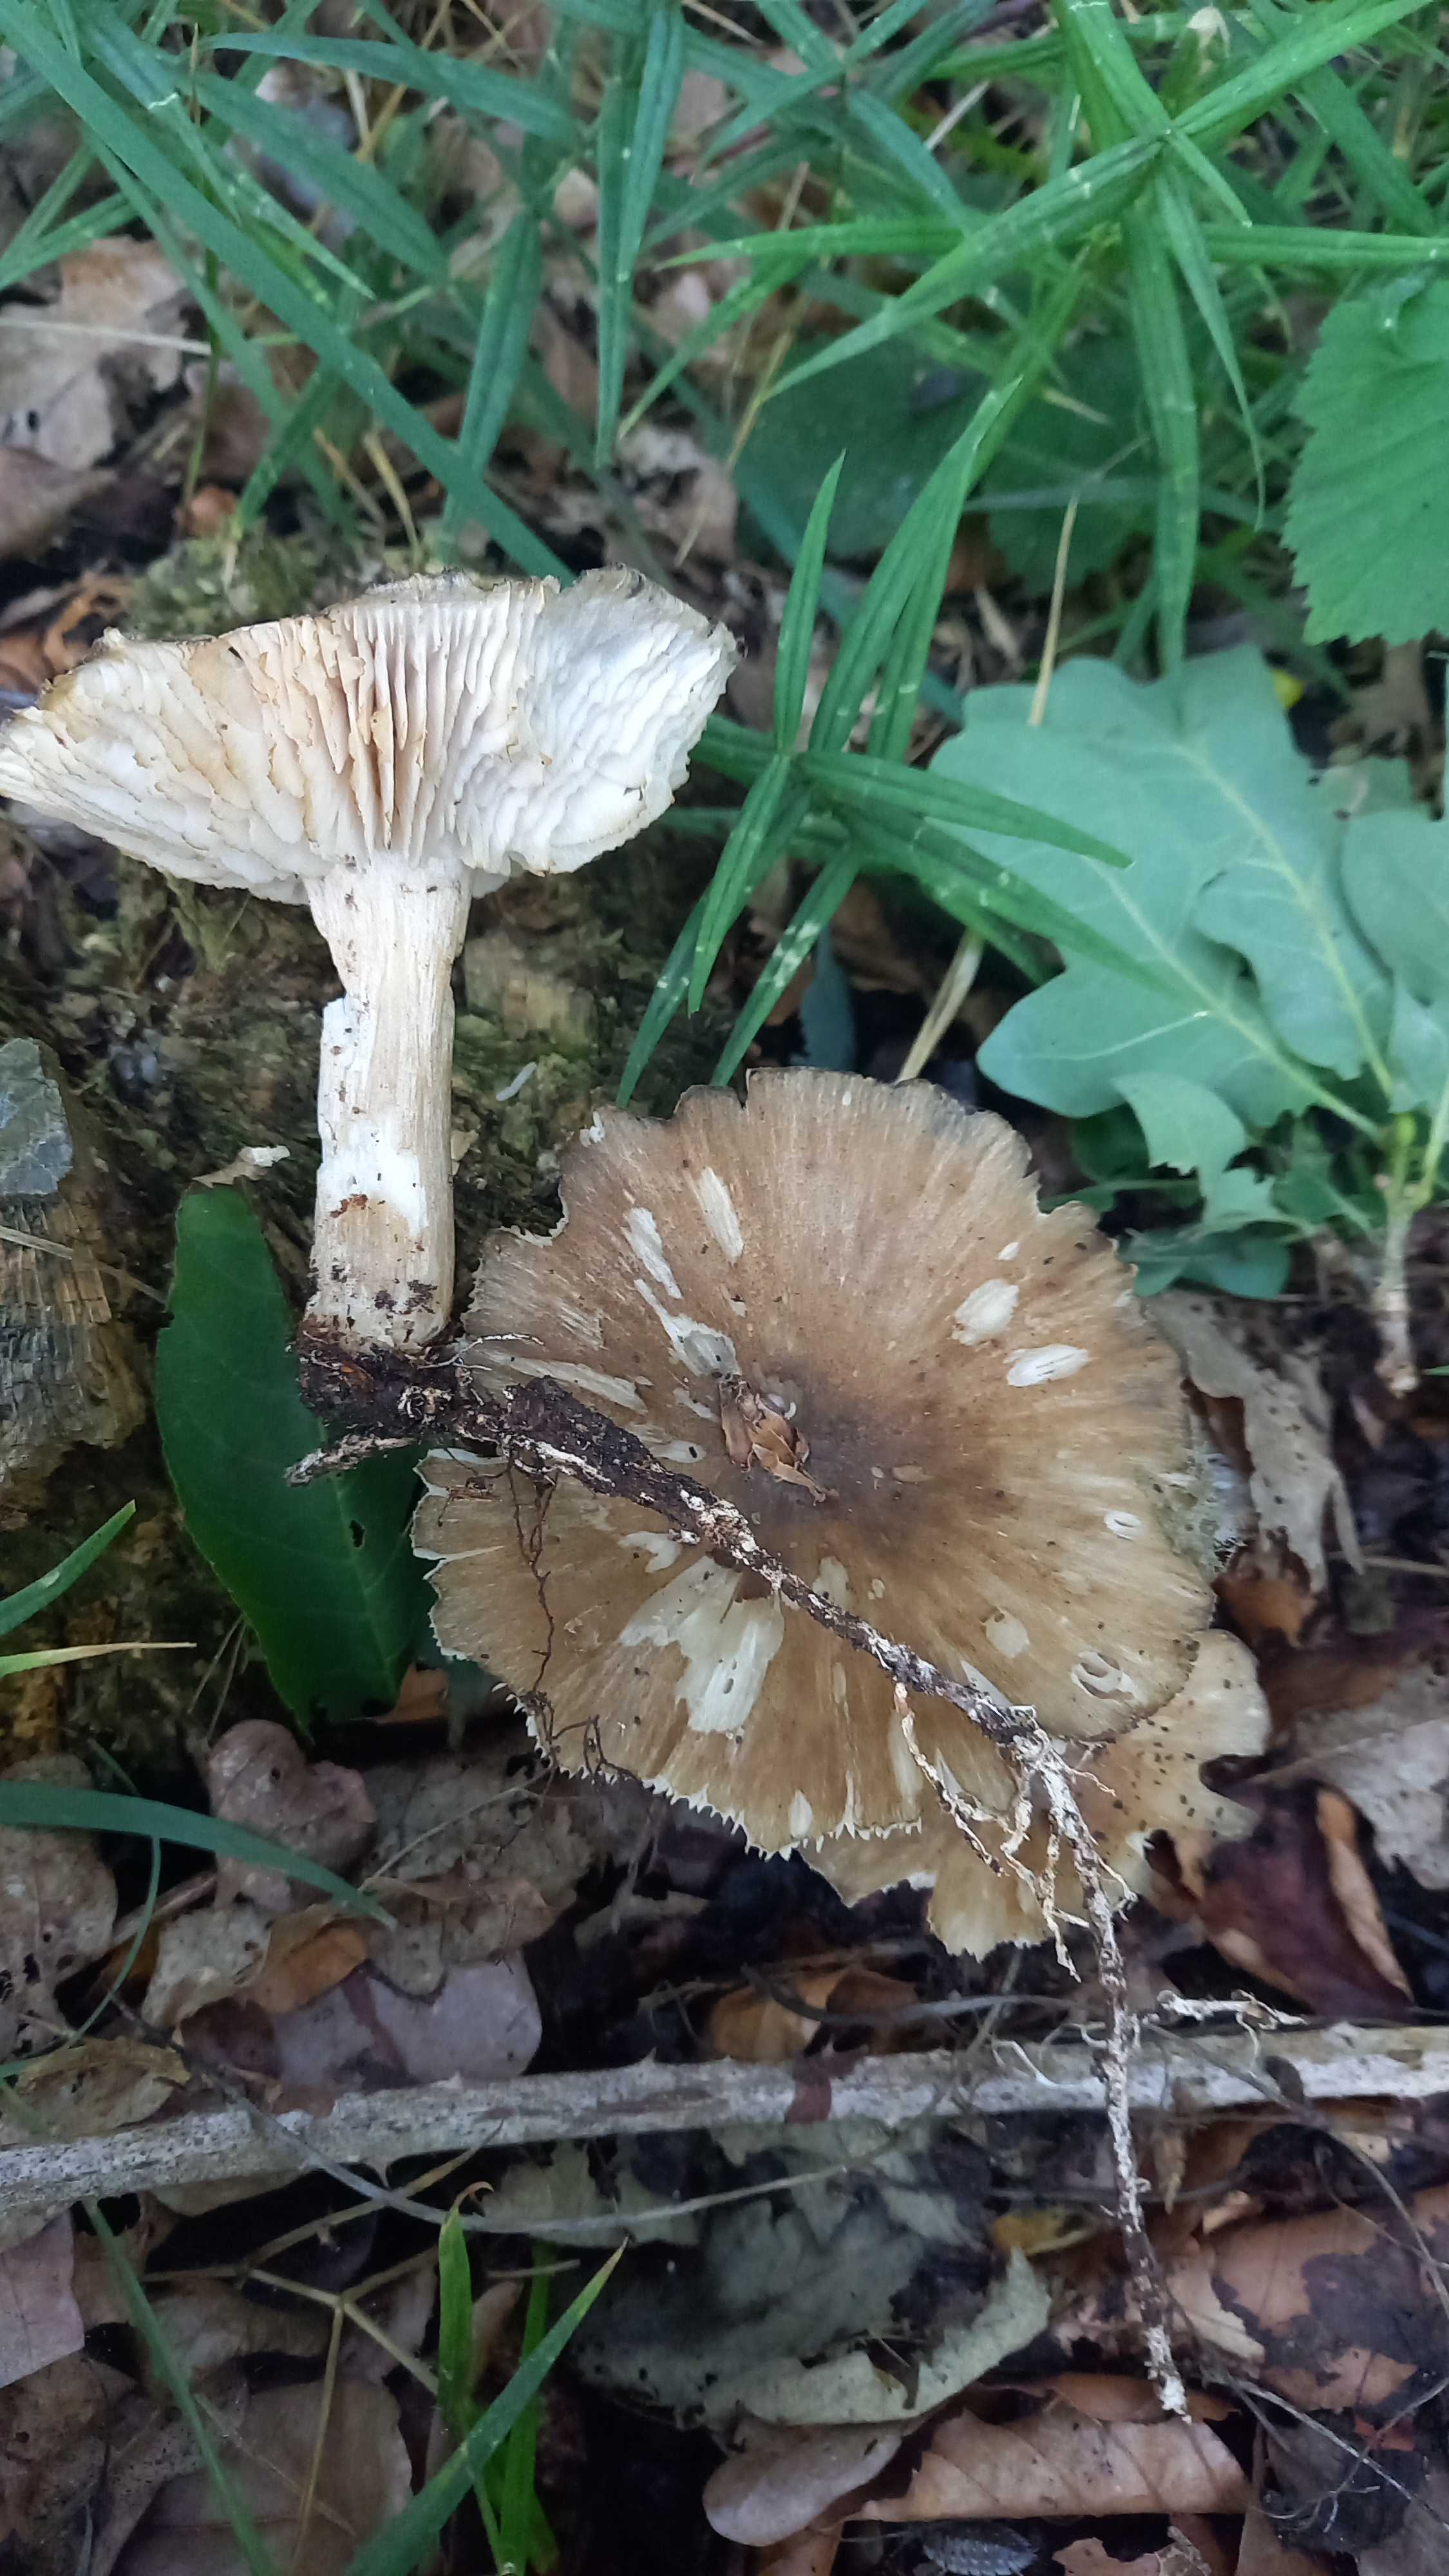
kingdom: Fungi
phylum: Basidiomycota
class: Agaricomycetes
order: Agaricales
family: Tricholomataceae
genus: Megacollybia
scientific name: Megacollybia platyphylla
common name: bredbladet væbnerhat
